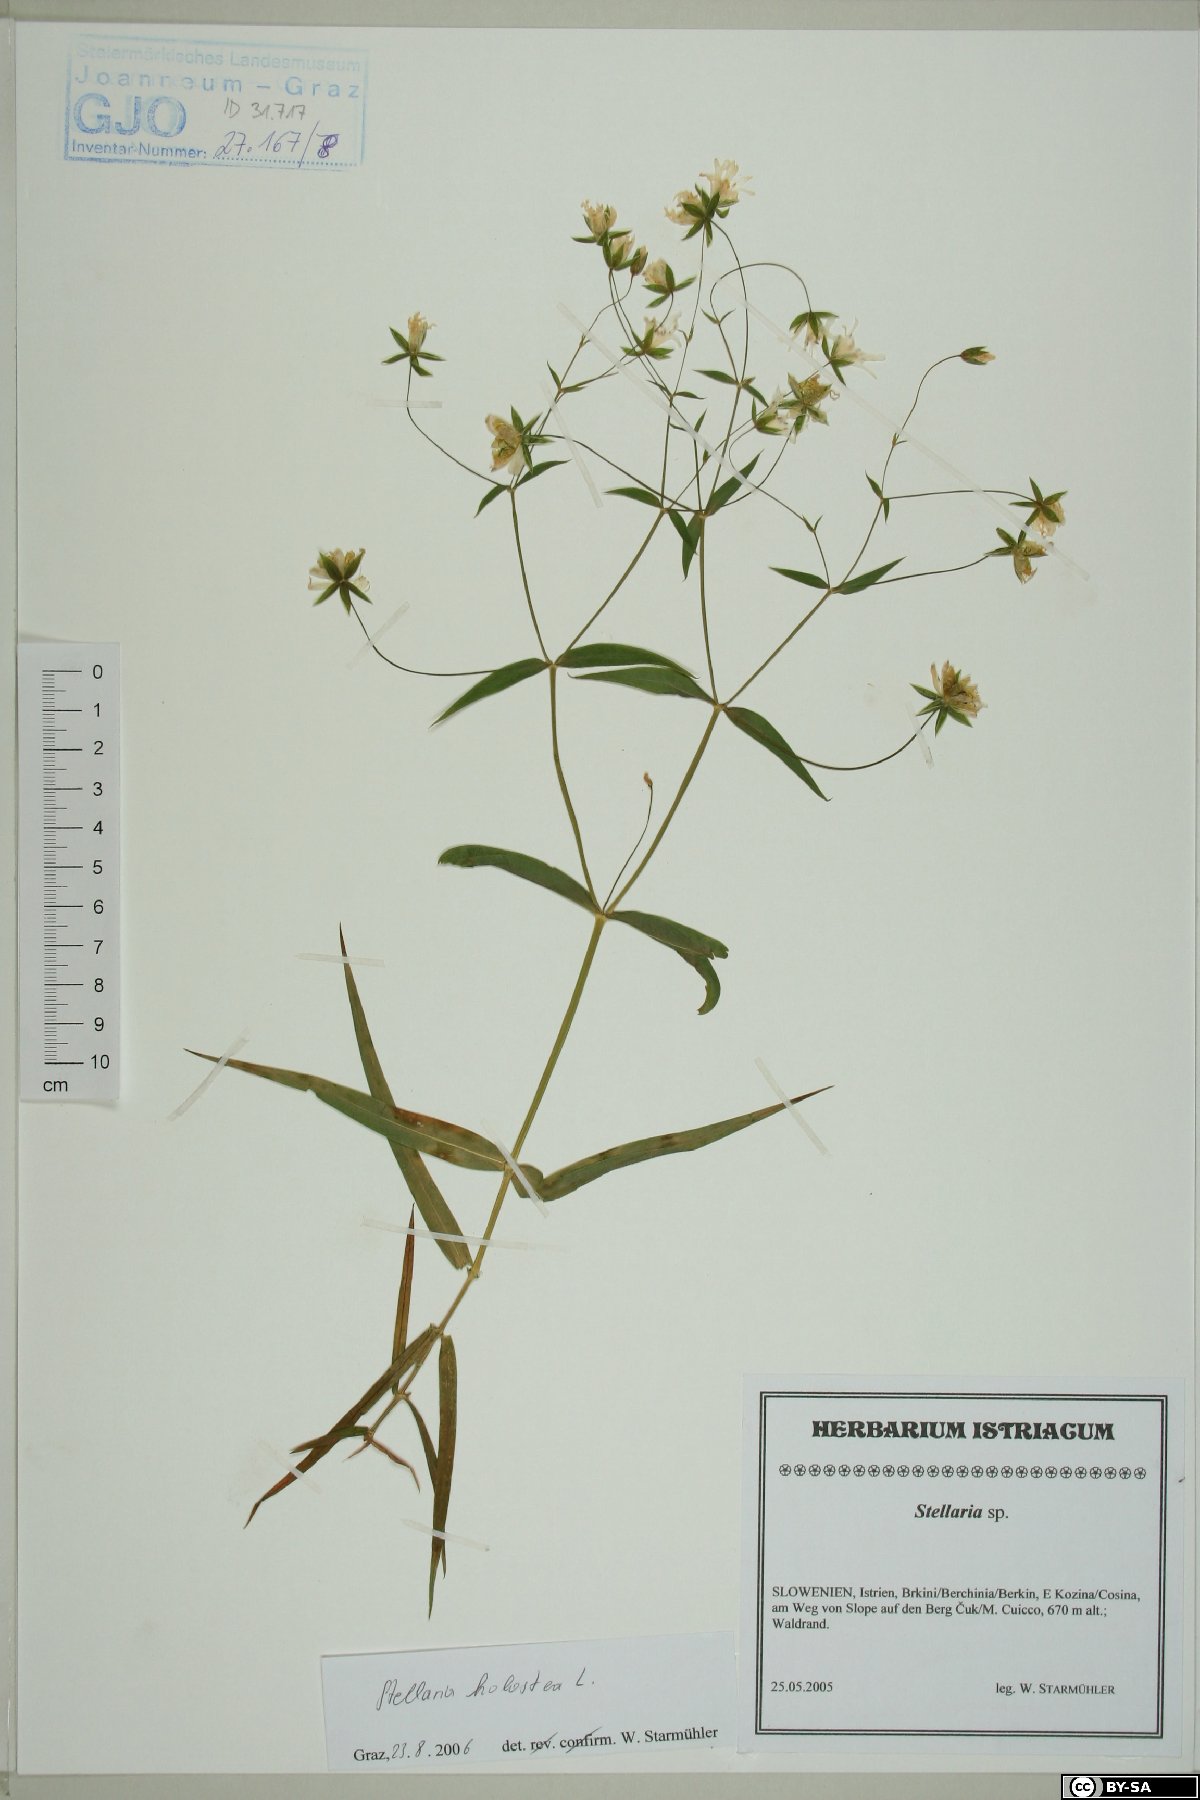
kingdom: Plantae
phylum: Tracheophyta
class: Magnoliopsida
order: Caryophyllales
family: Caryophyllaceae
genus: Rabelera
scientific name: Rabelera holostea
